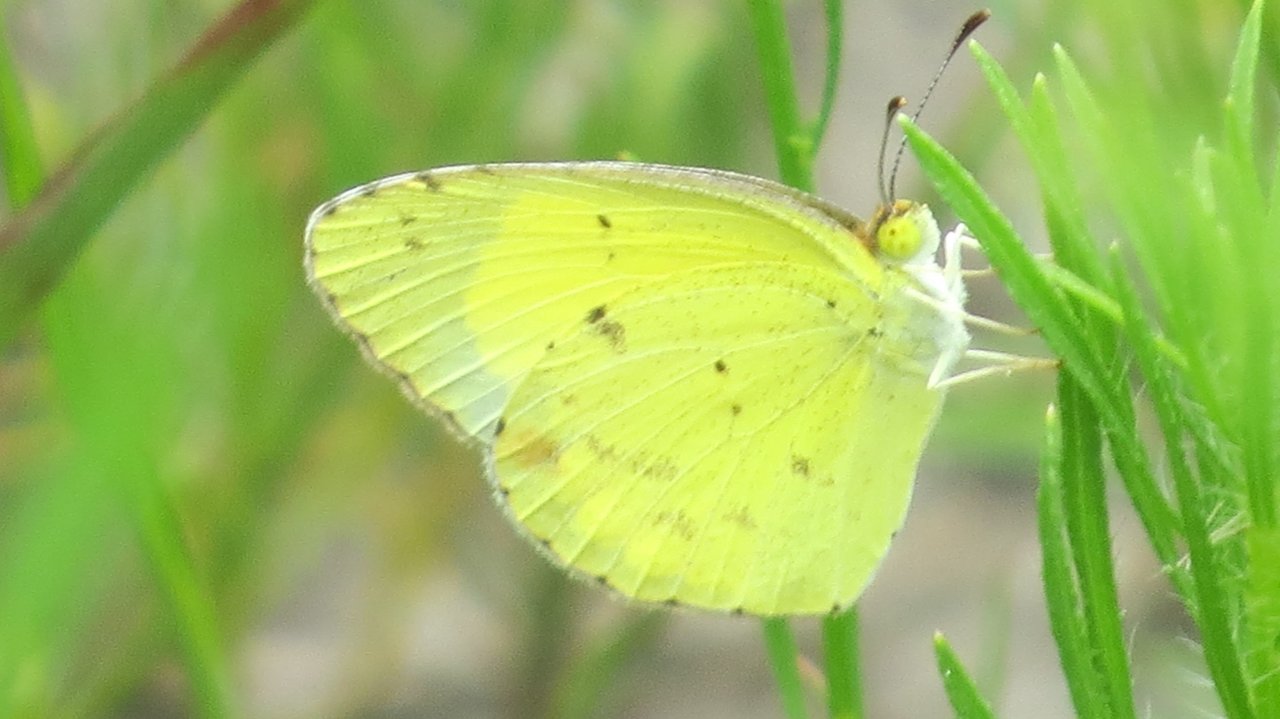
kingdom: Animalia
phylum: Arthropoda
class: Insecta
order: Lepidoptera
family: Pieridae
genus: Pyrisitia
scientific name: Pyrisitia lisa
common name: Little Yellow
